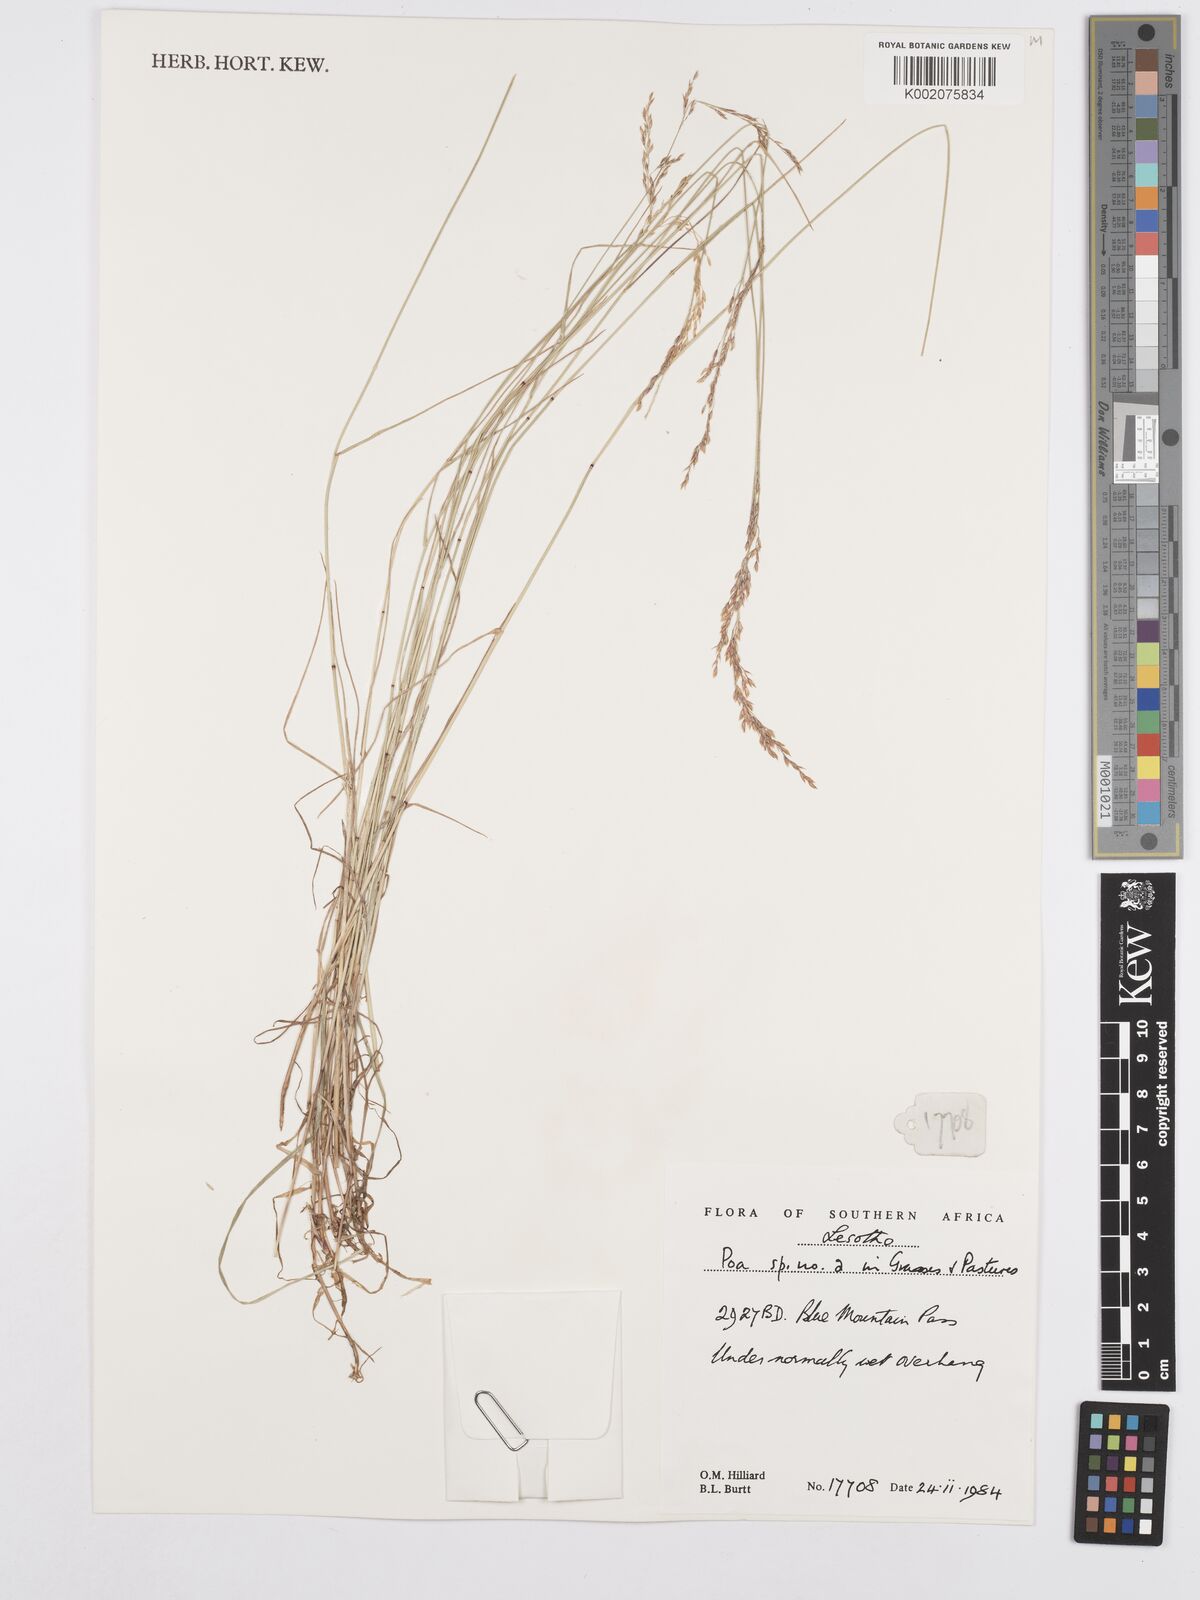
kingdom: Plantae
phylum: Tracheophyta
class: Liliopsida
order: Poales
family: Poaceae
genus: Poa
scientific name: Poa
